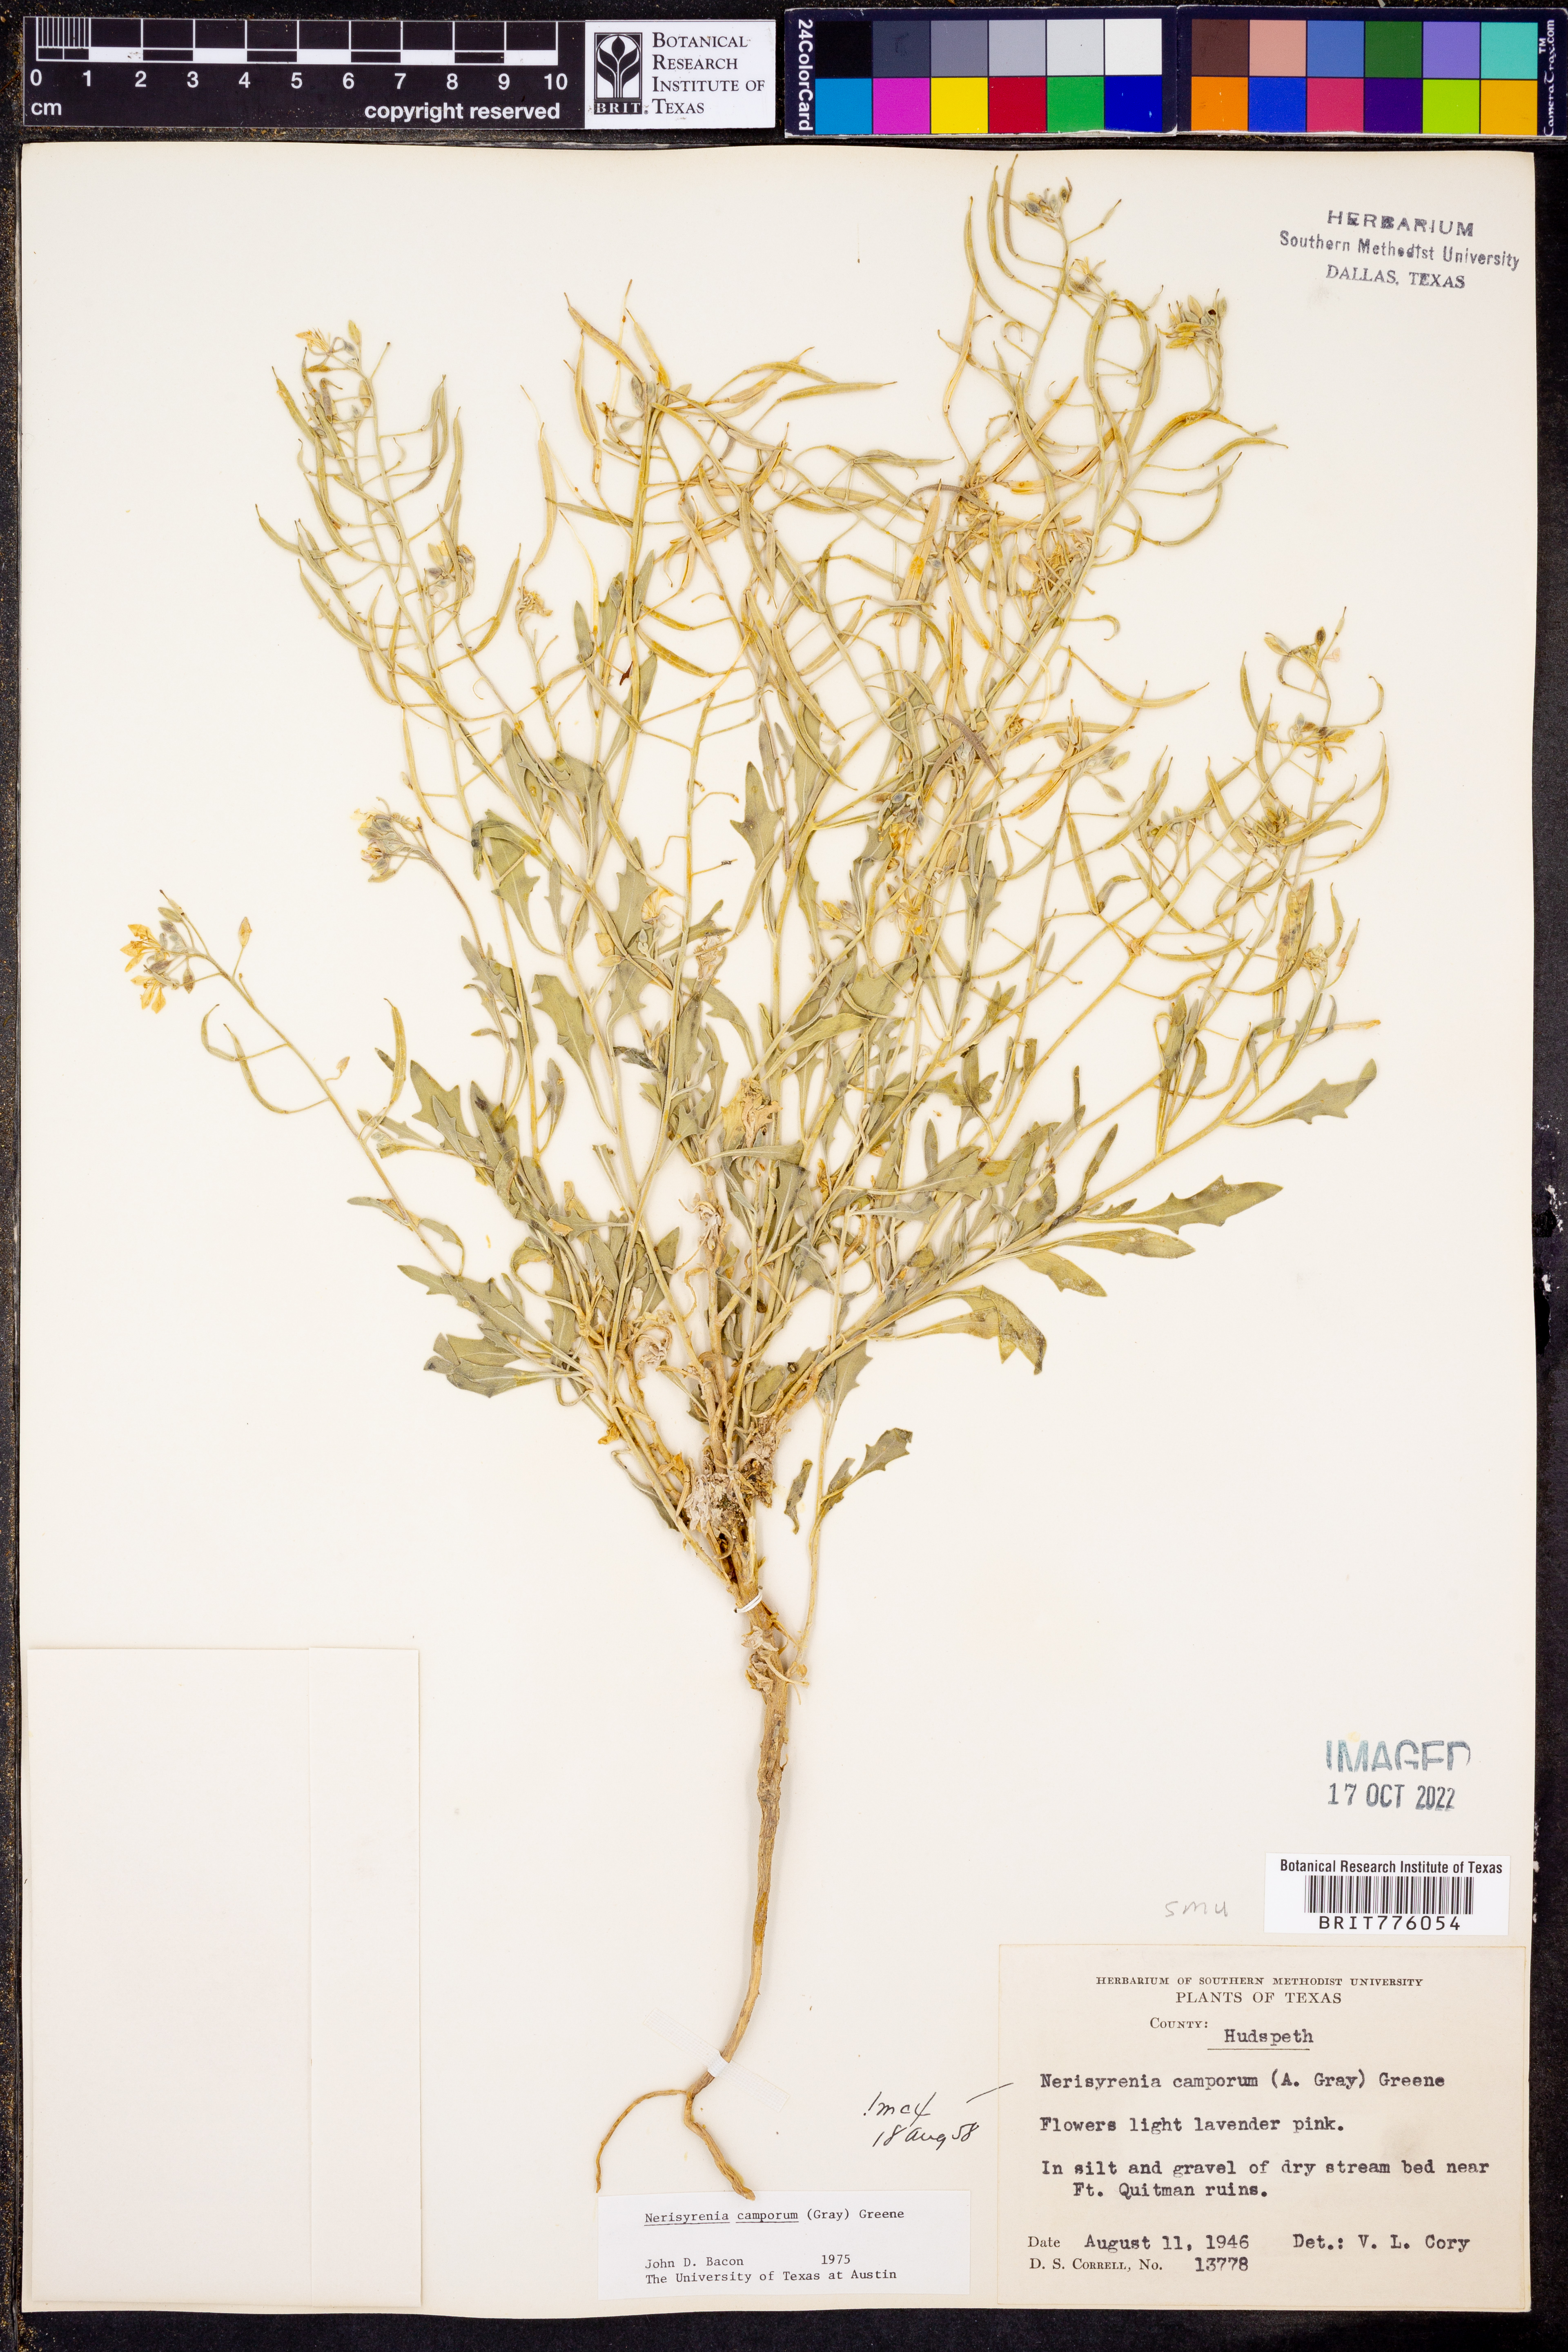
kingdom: Plantae
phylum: Tracheophyta
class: Magnoliopsida
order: Brassicales
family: Brassicaceae
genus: Nerisyrenia
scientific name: Nerisyrenia camporum
